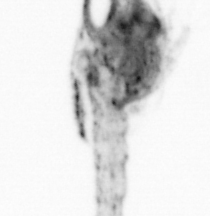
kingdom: Animalia
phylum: Chaetognatha
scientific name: Chaetognatha
